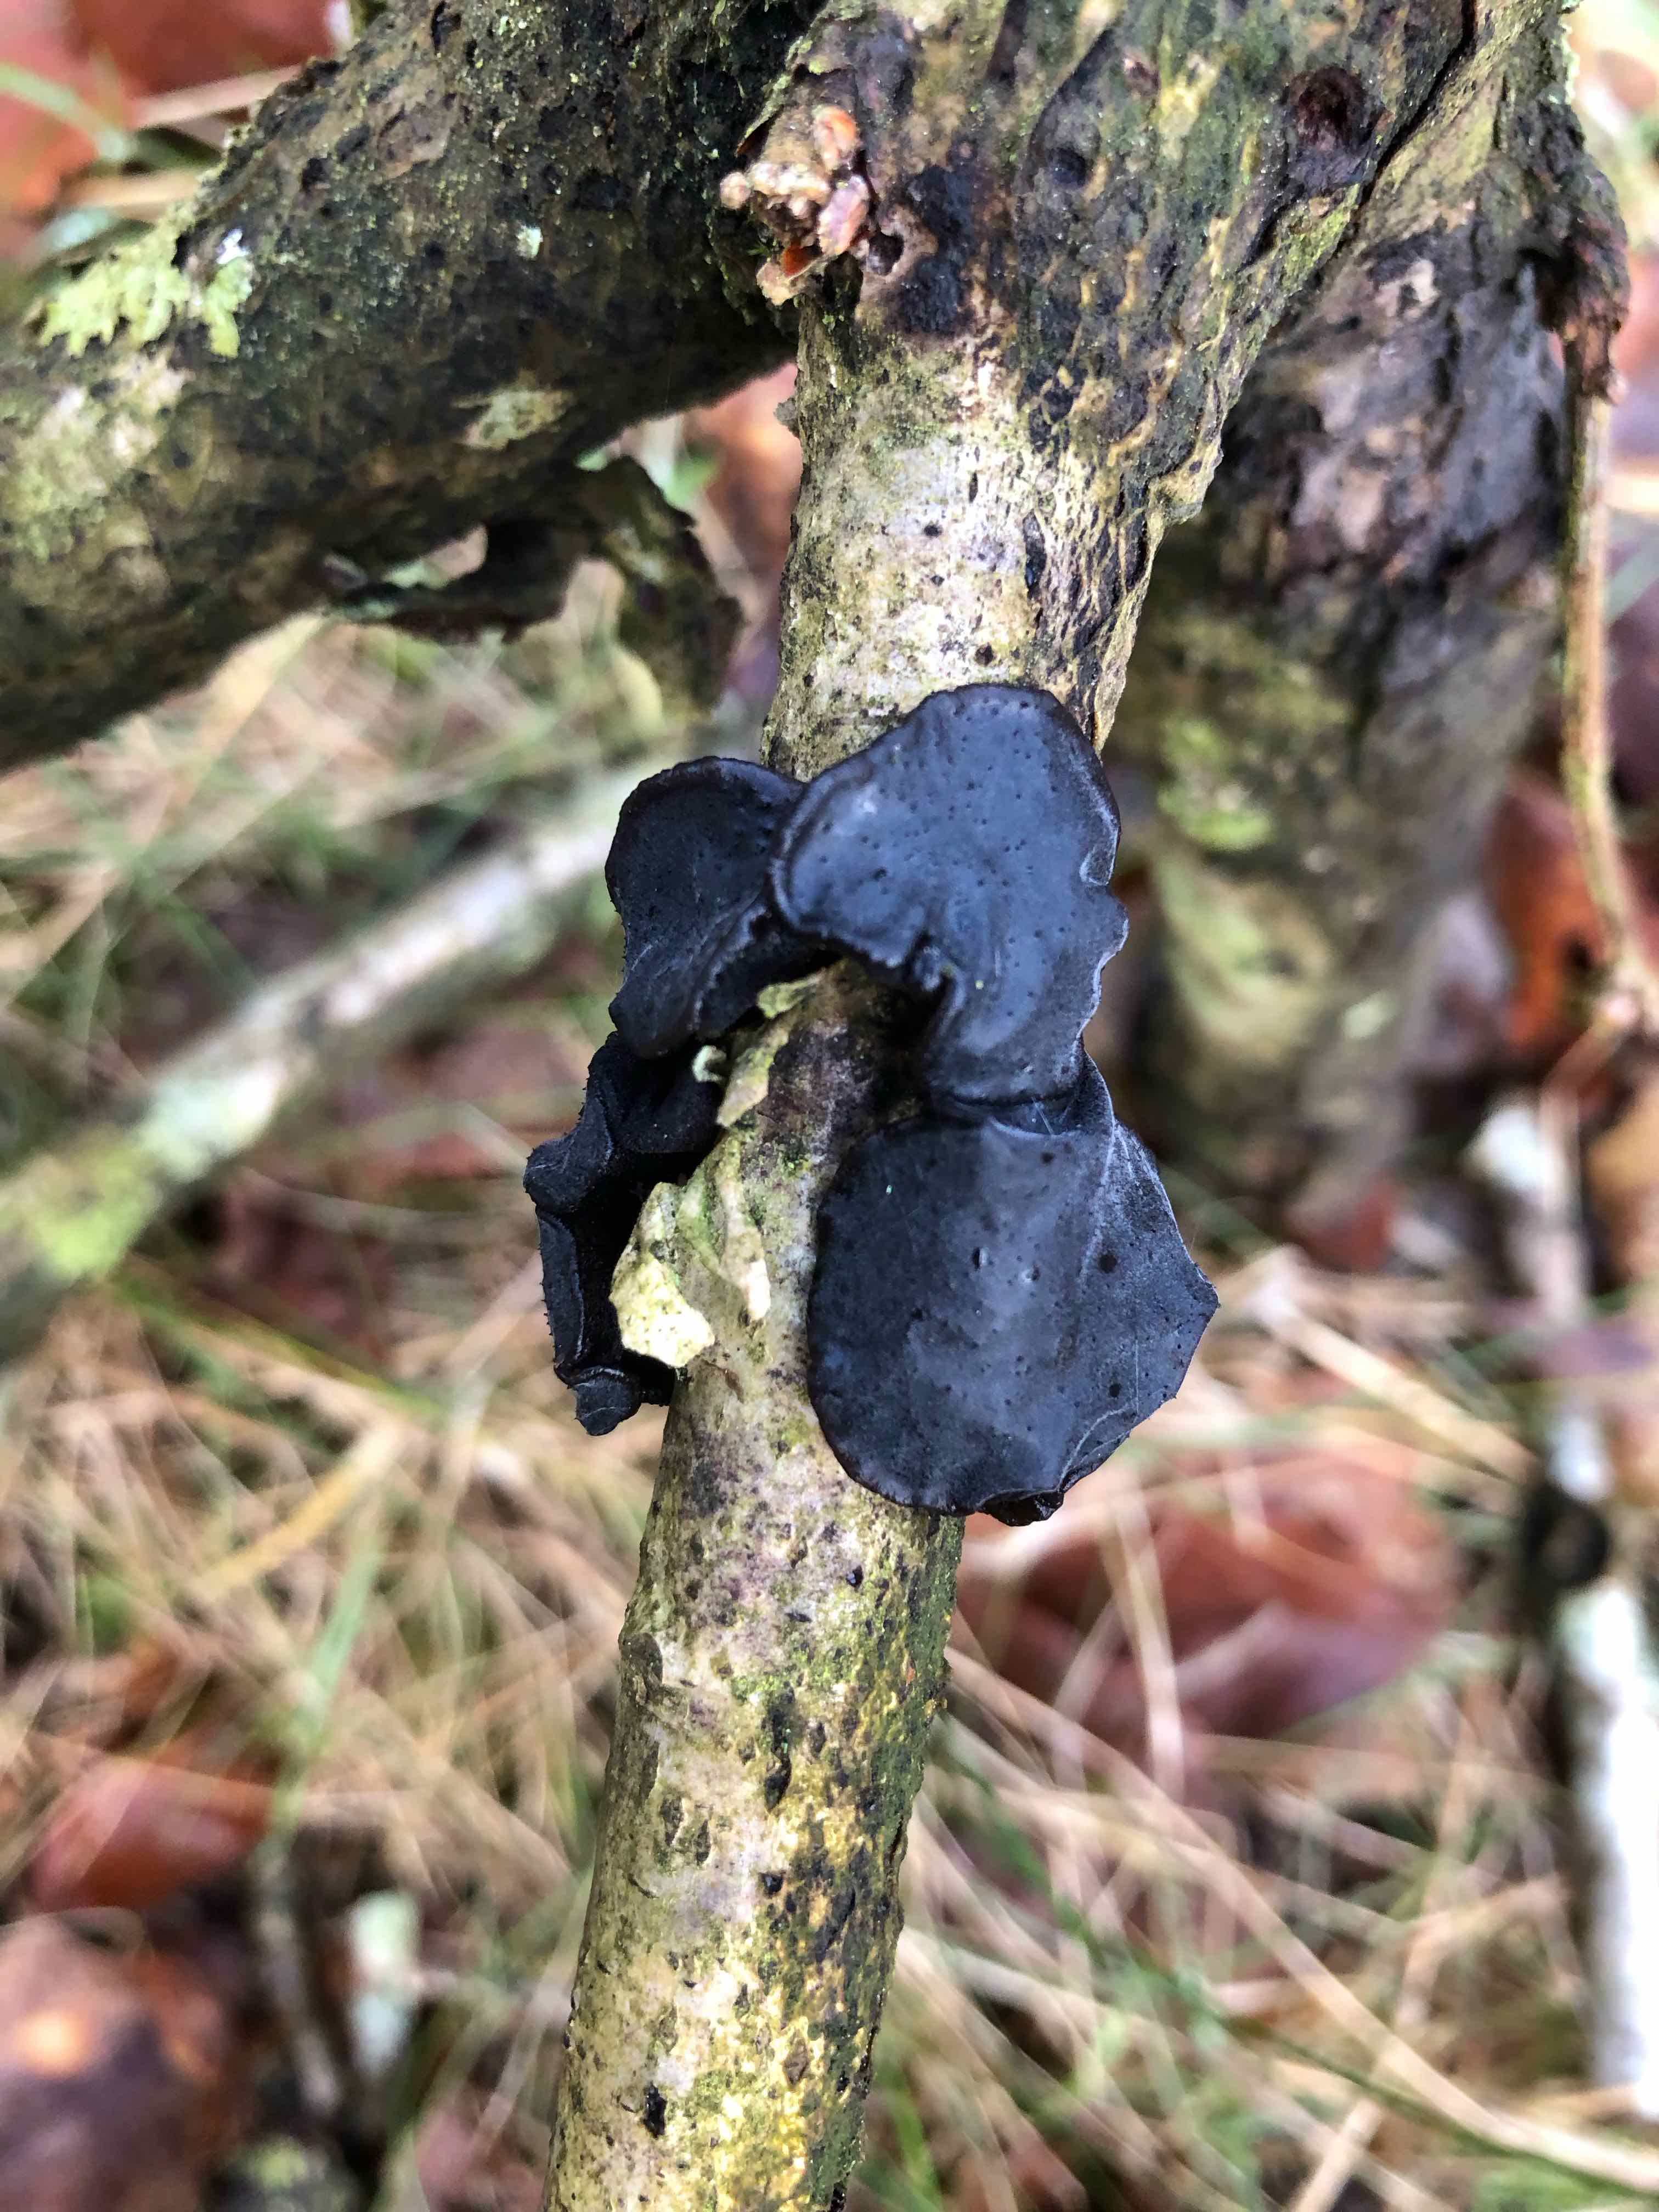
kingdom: Fungi
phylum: Basidiomycota
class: Agaricomycetes
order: Auriculariales
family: Auriculariaceae
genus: Exidia
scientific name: Exidia glandulosa
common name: ege-bævretop
